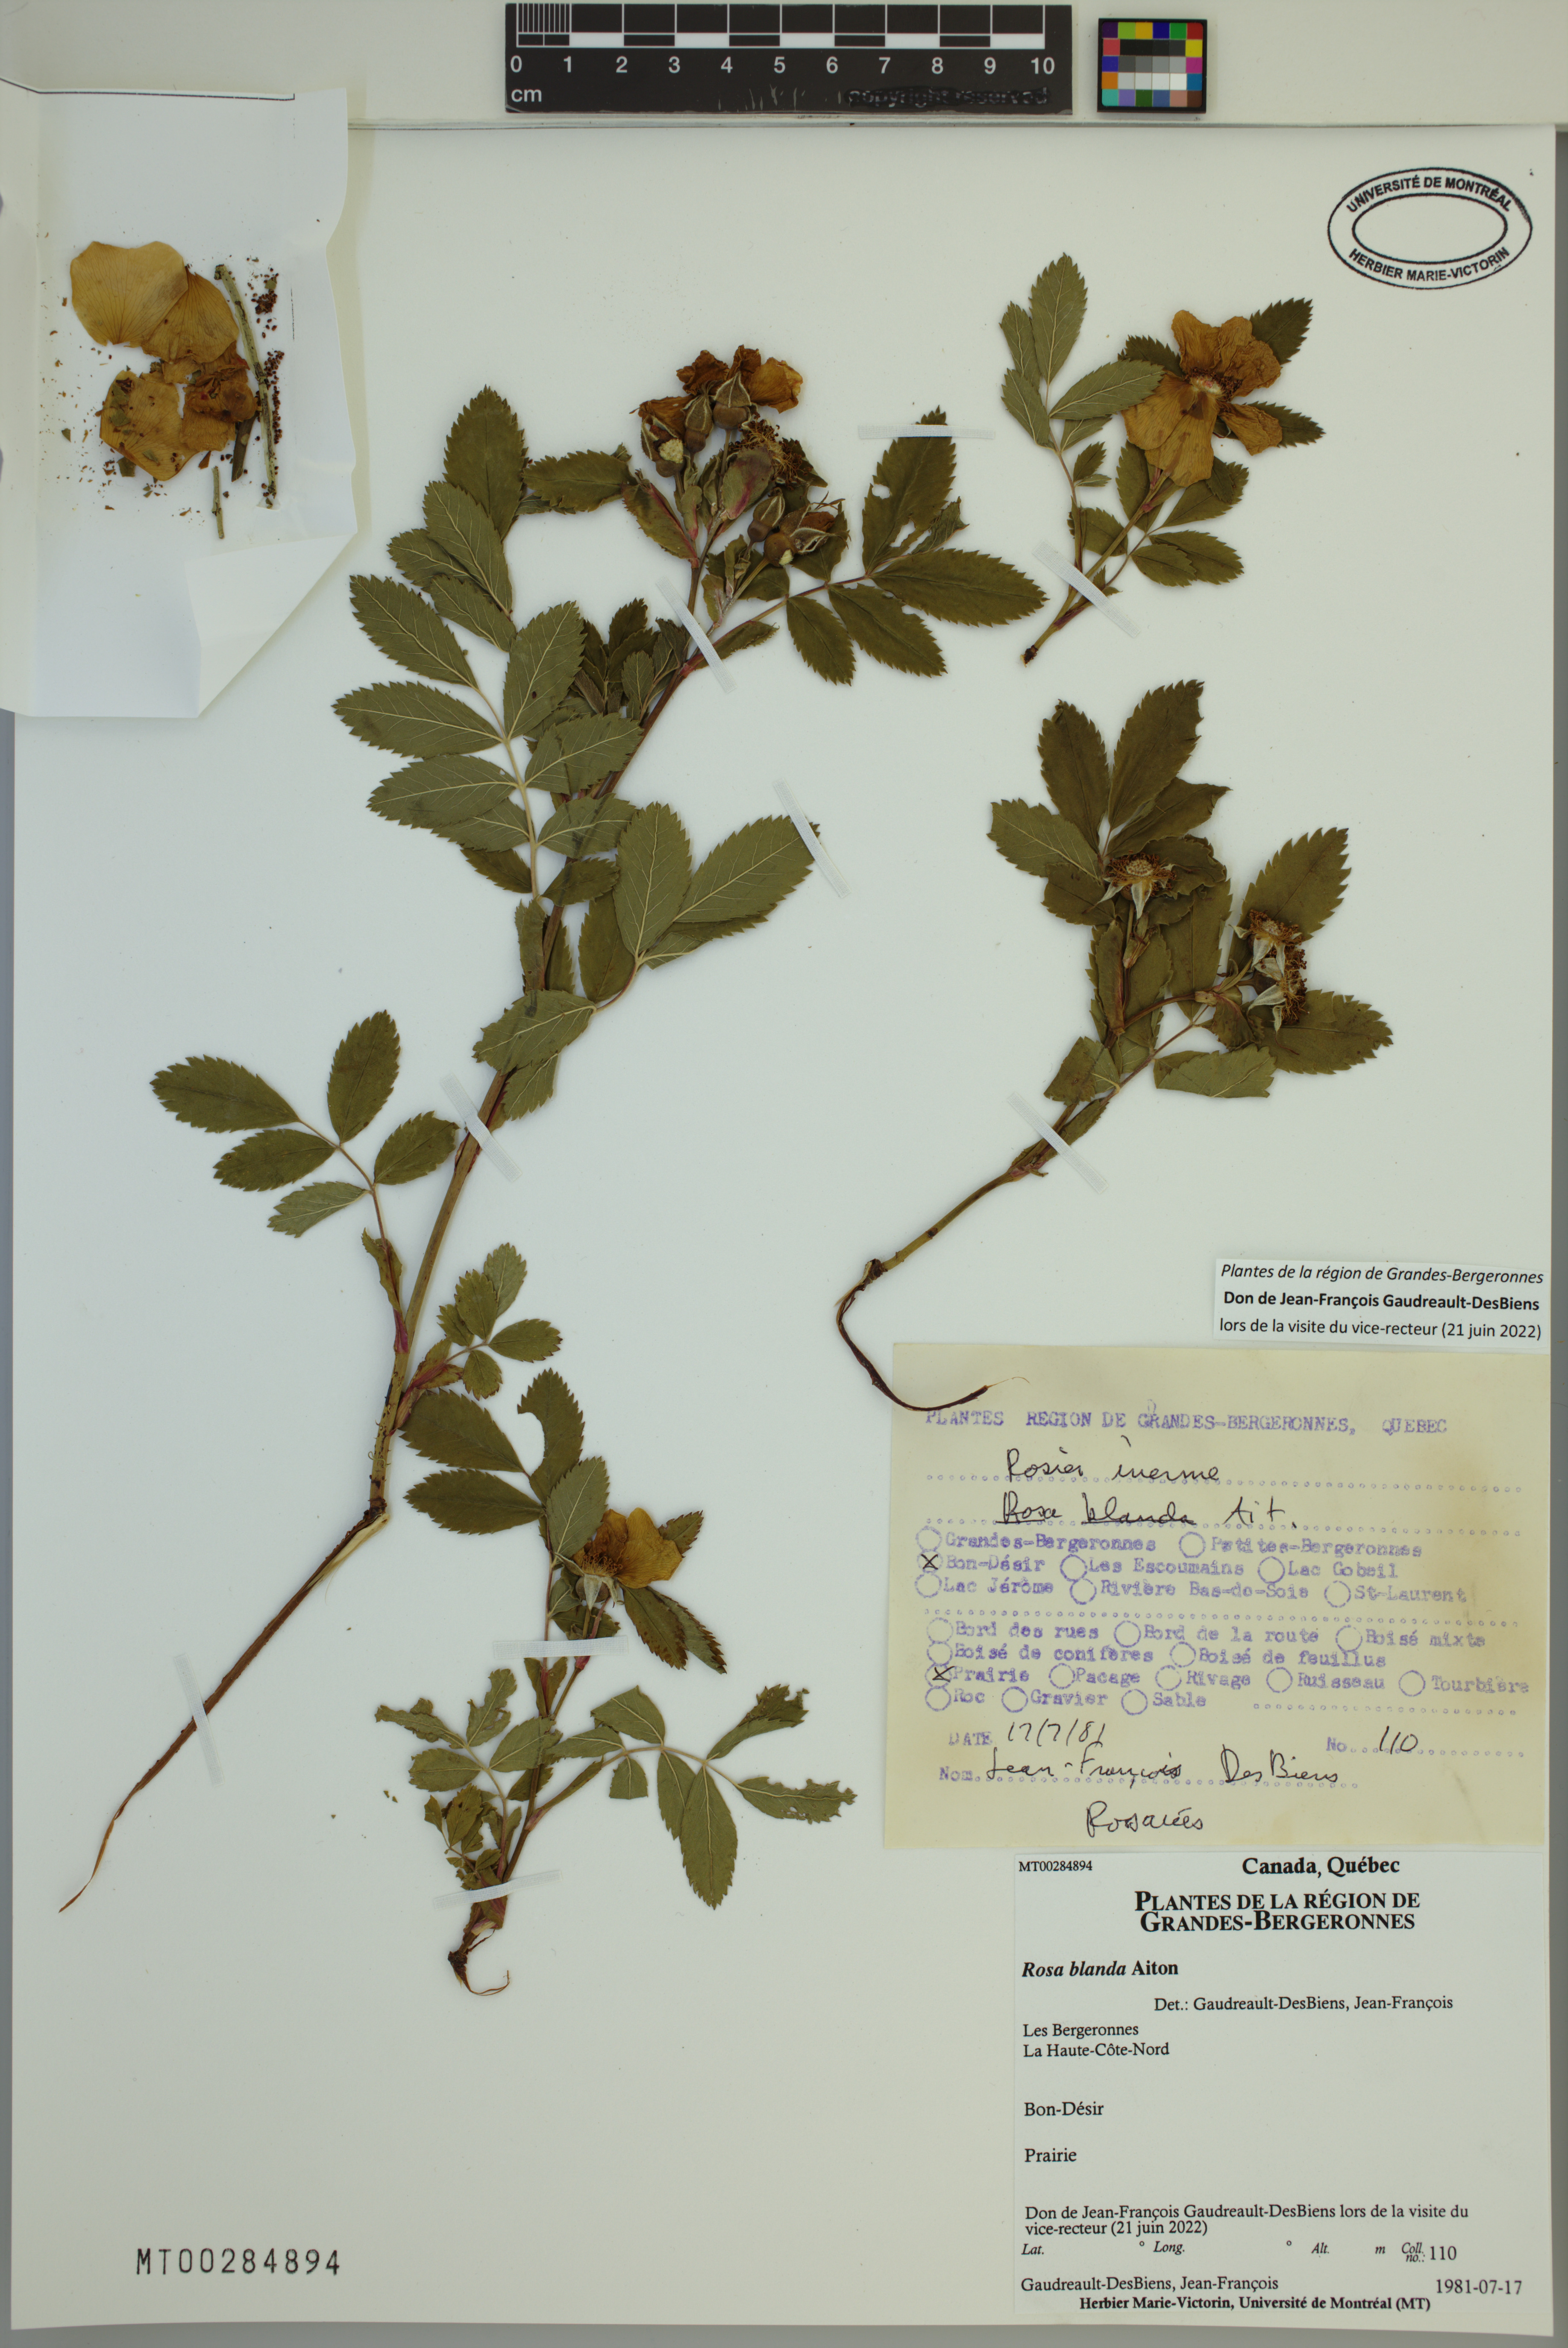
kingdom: Plantae
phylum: Tracheophyta
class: Magnoliopsida
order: Rosales
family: Rosaceae
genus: Rosa
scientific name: Rosa blanda
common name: Smooth rose
